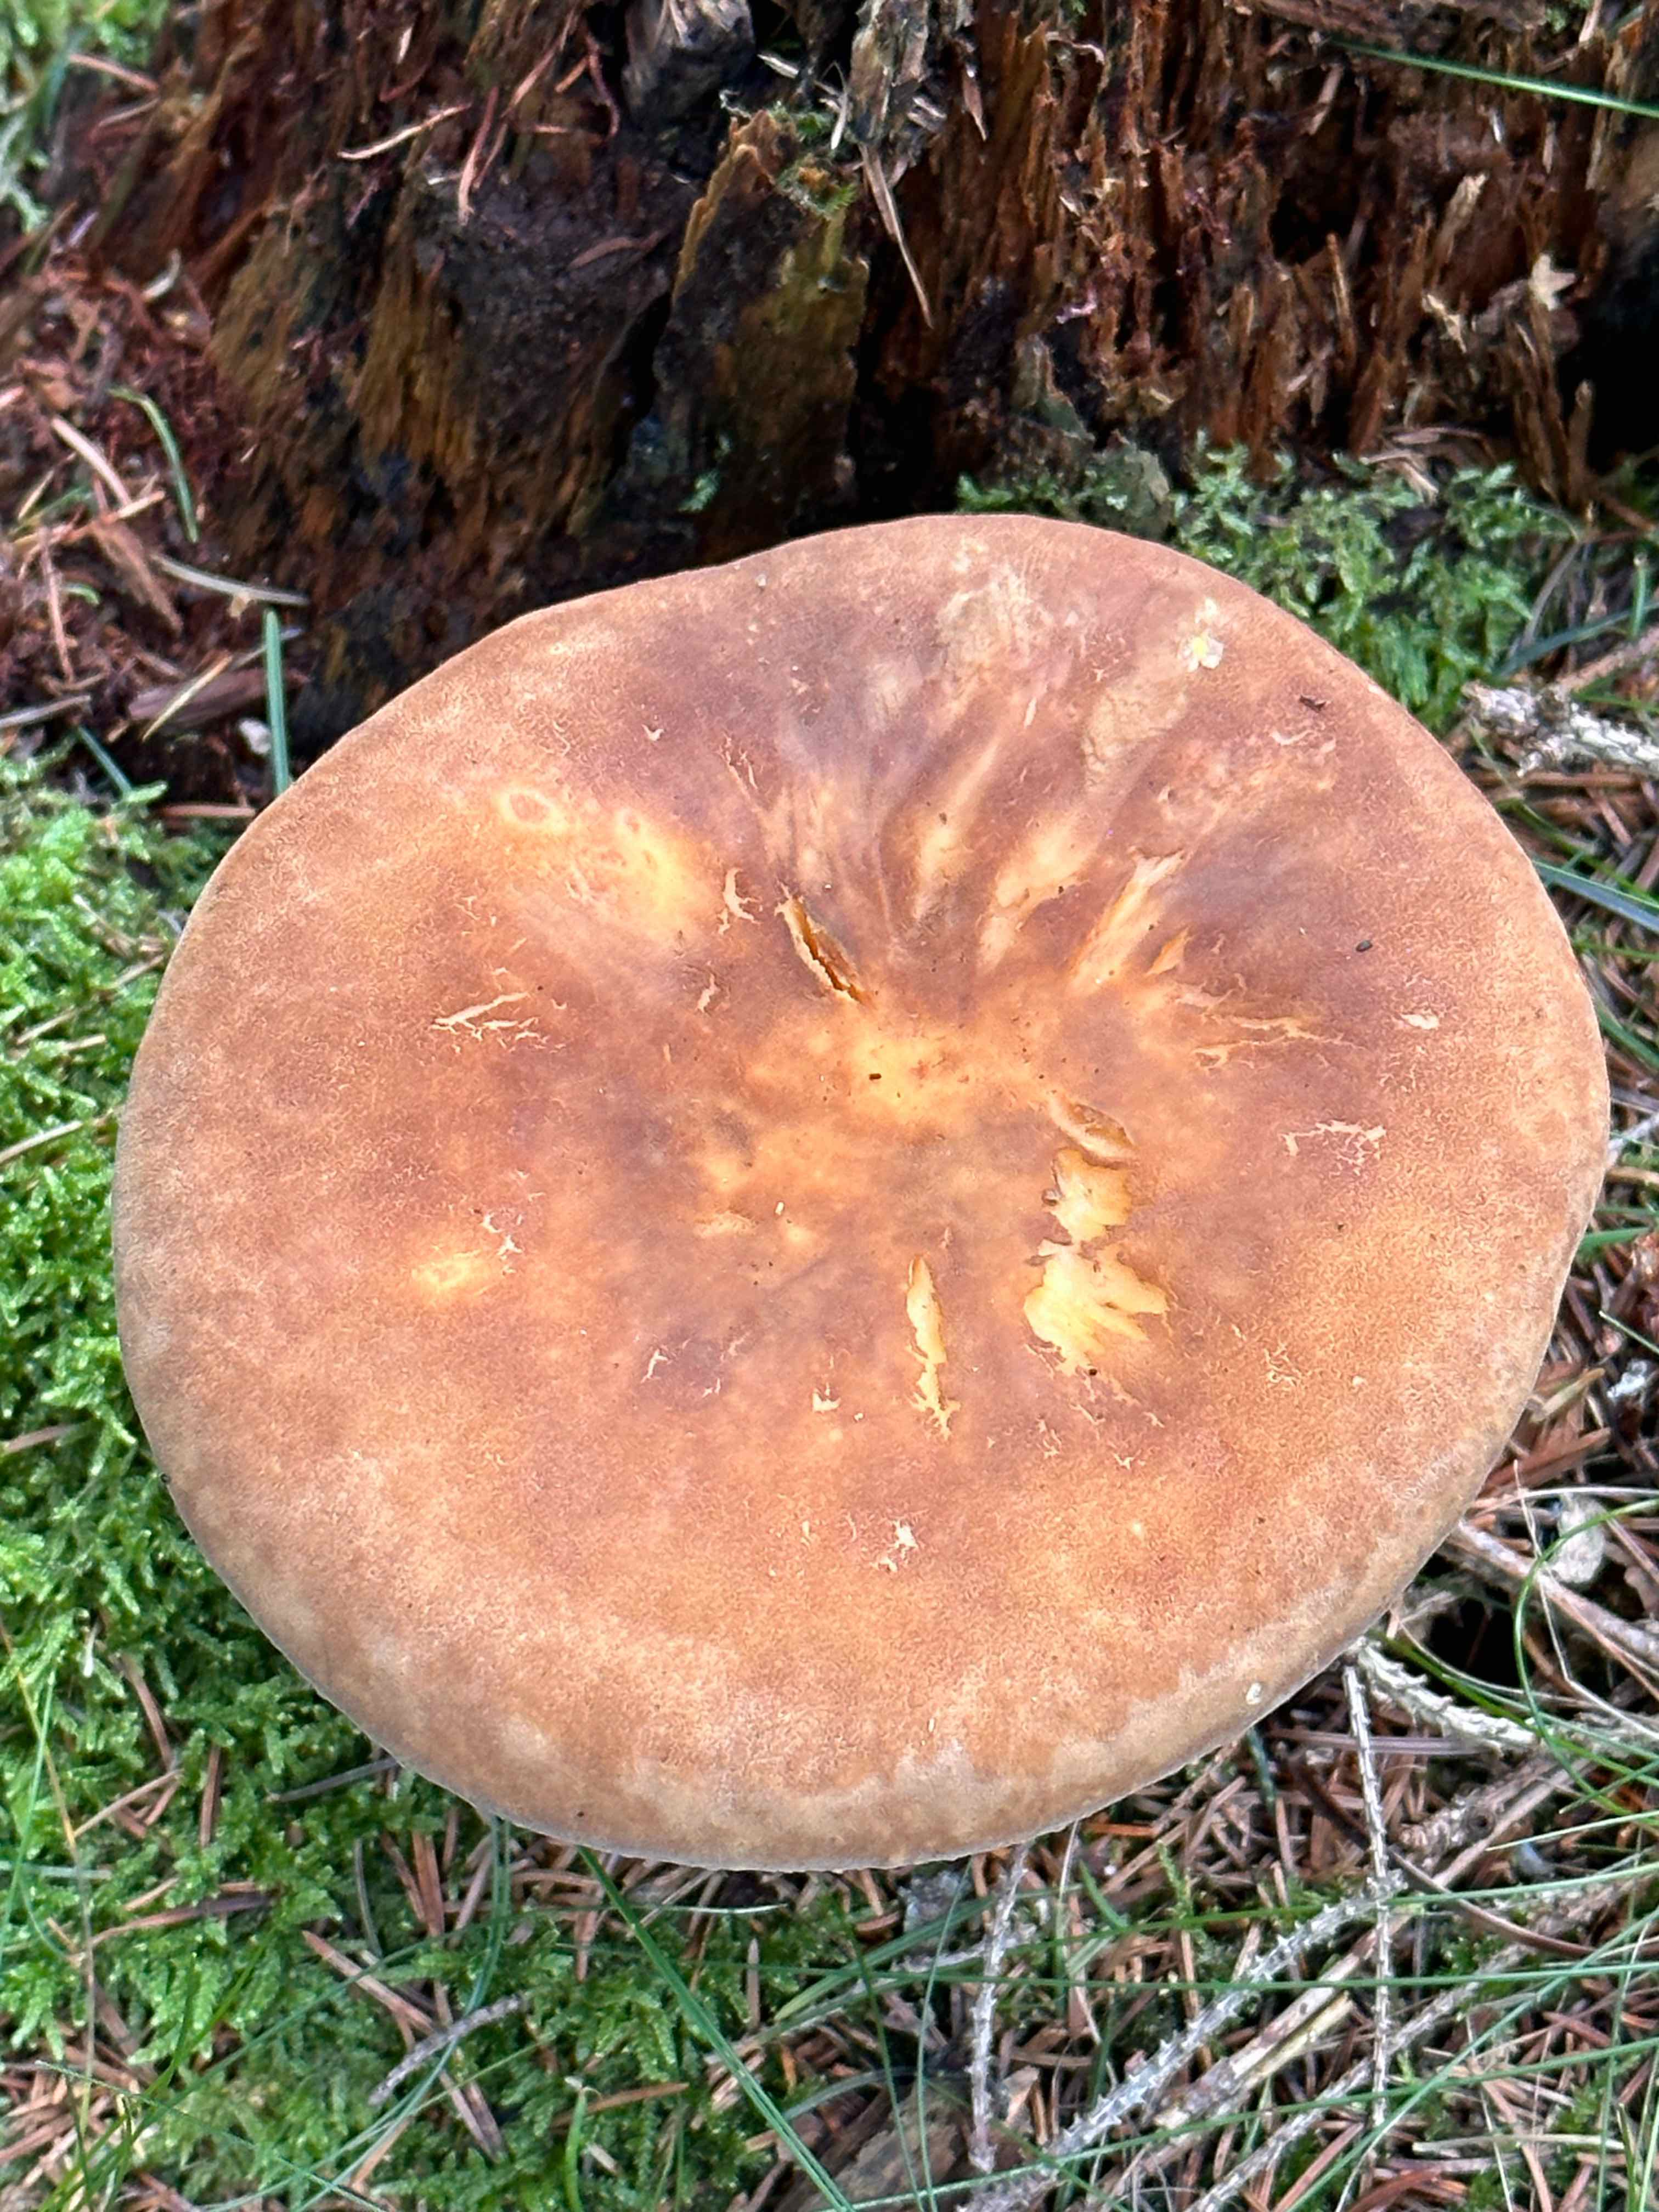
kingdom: Fungi
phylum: Basidiomycota
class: Agaricomycetes
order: Boletales
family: Tapinellaceae
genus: Tapinella
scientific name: Tapinella atrotomentosa
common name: sortfiltet viftesvamp
